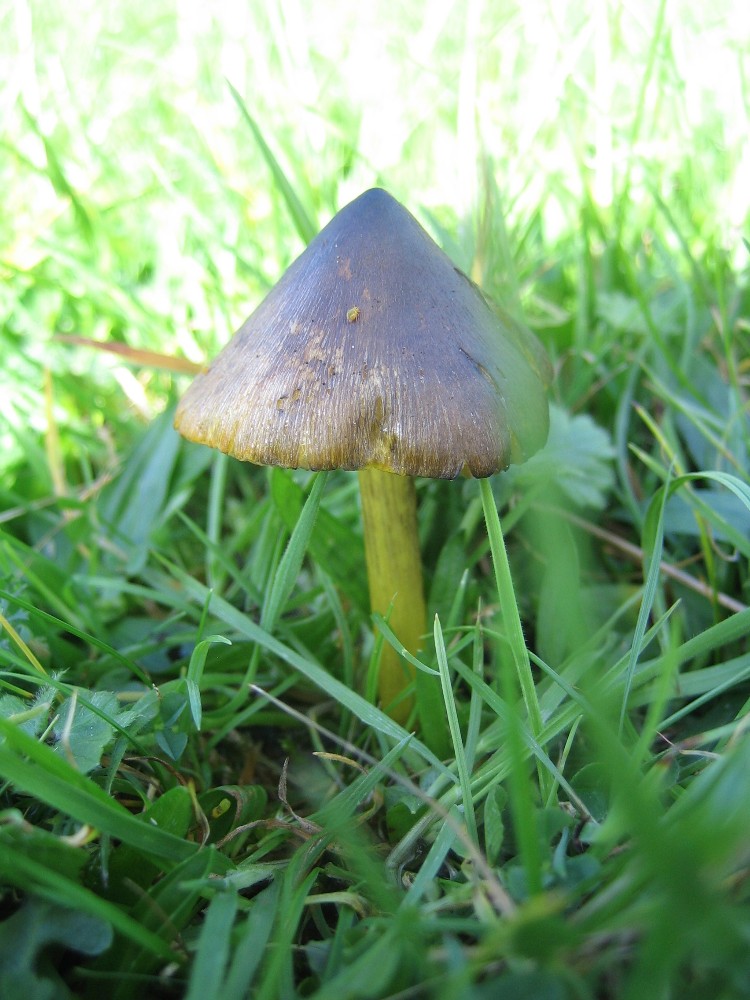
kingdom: Fungi
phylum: Basidiomycota
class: Agaricomycetes
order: Agaricales
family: Hygrophoraceae
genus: Hygrocybe
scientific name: Hygrocybe conica
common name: kegle-vokshat
